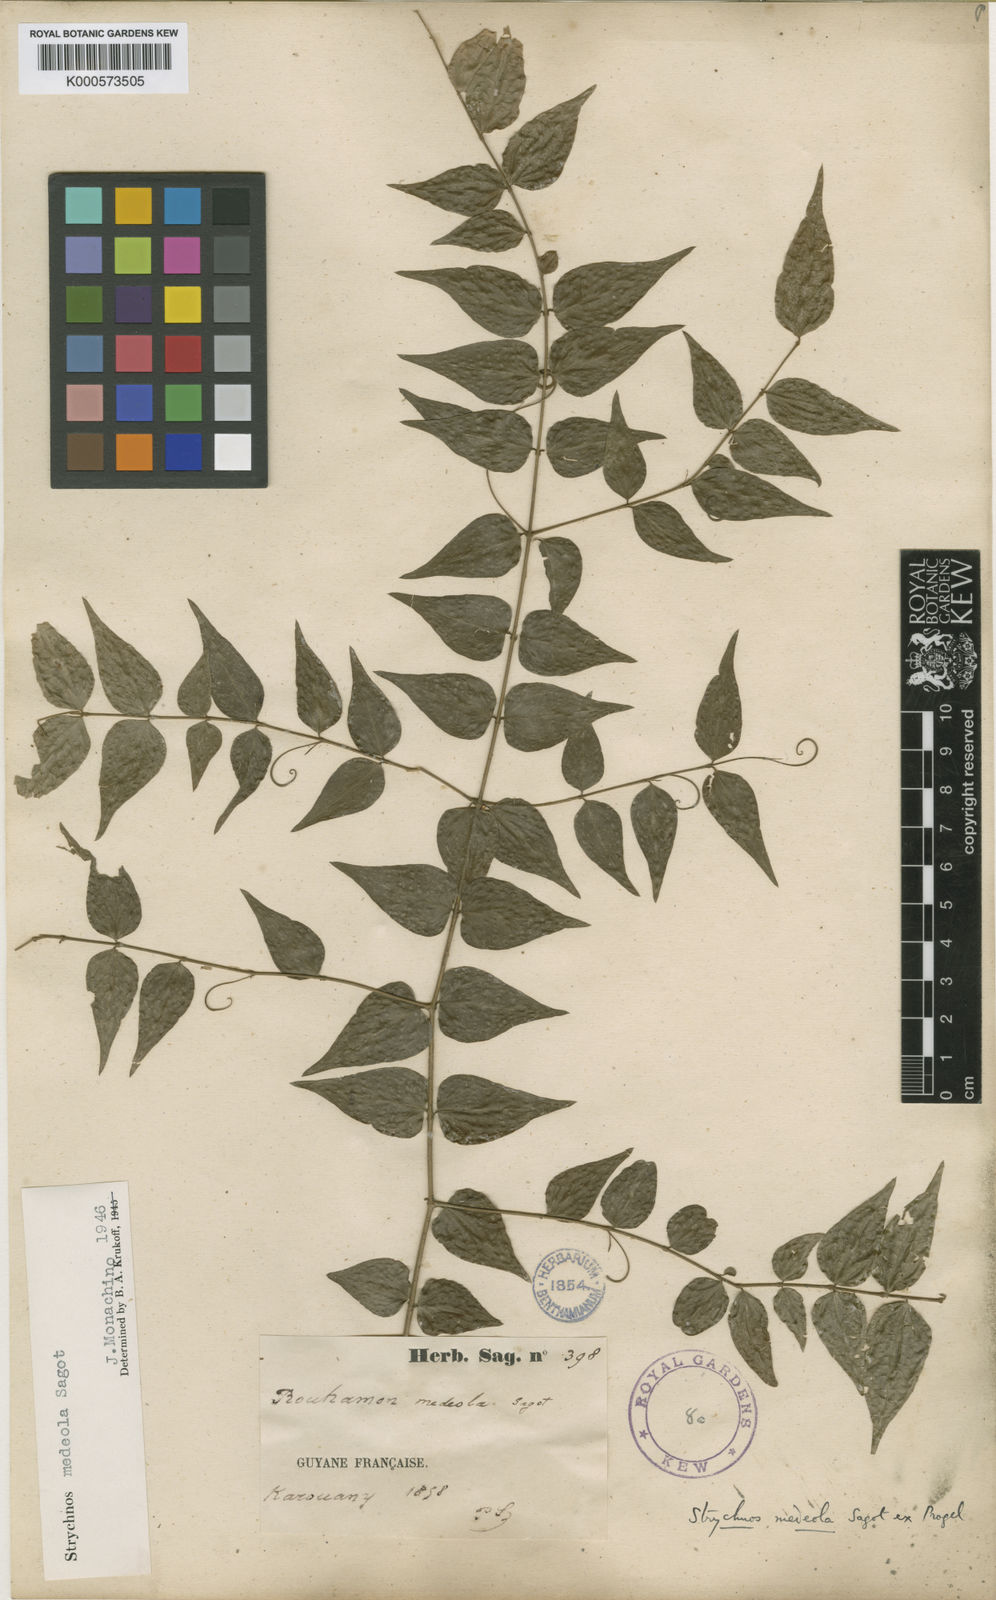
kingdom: Plantae
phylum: Tracheophyta
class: Magnoliopsida
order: Gentianales
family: Loganiaceae
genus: Strychnos
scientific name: Strychnos medeola
